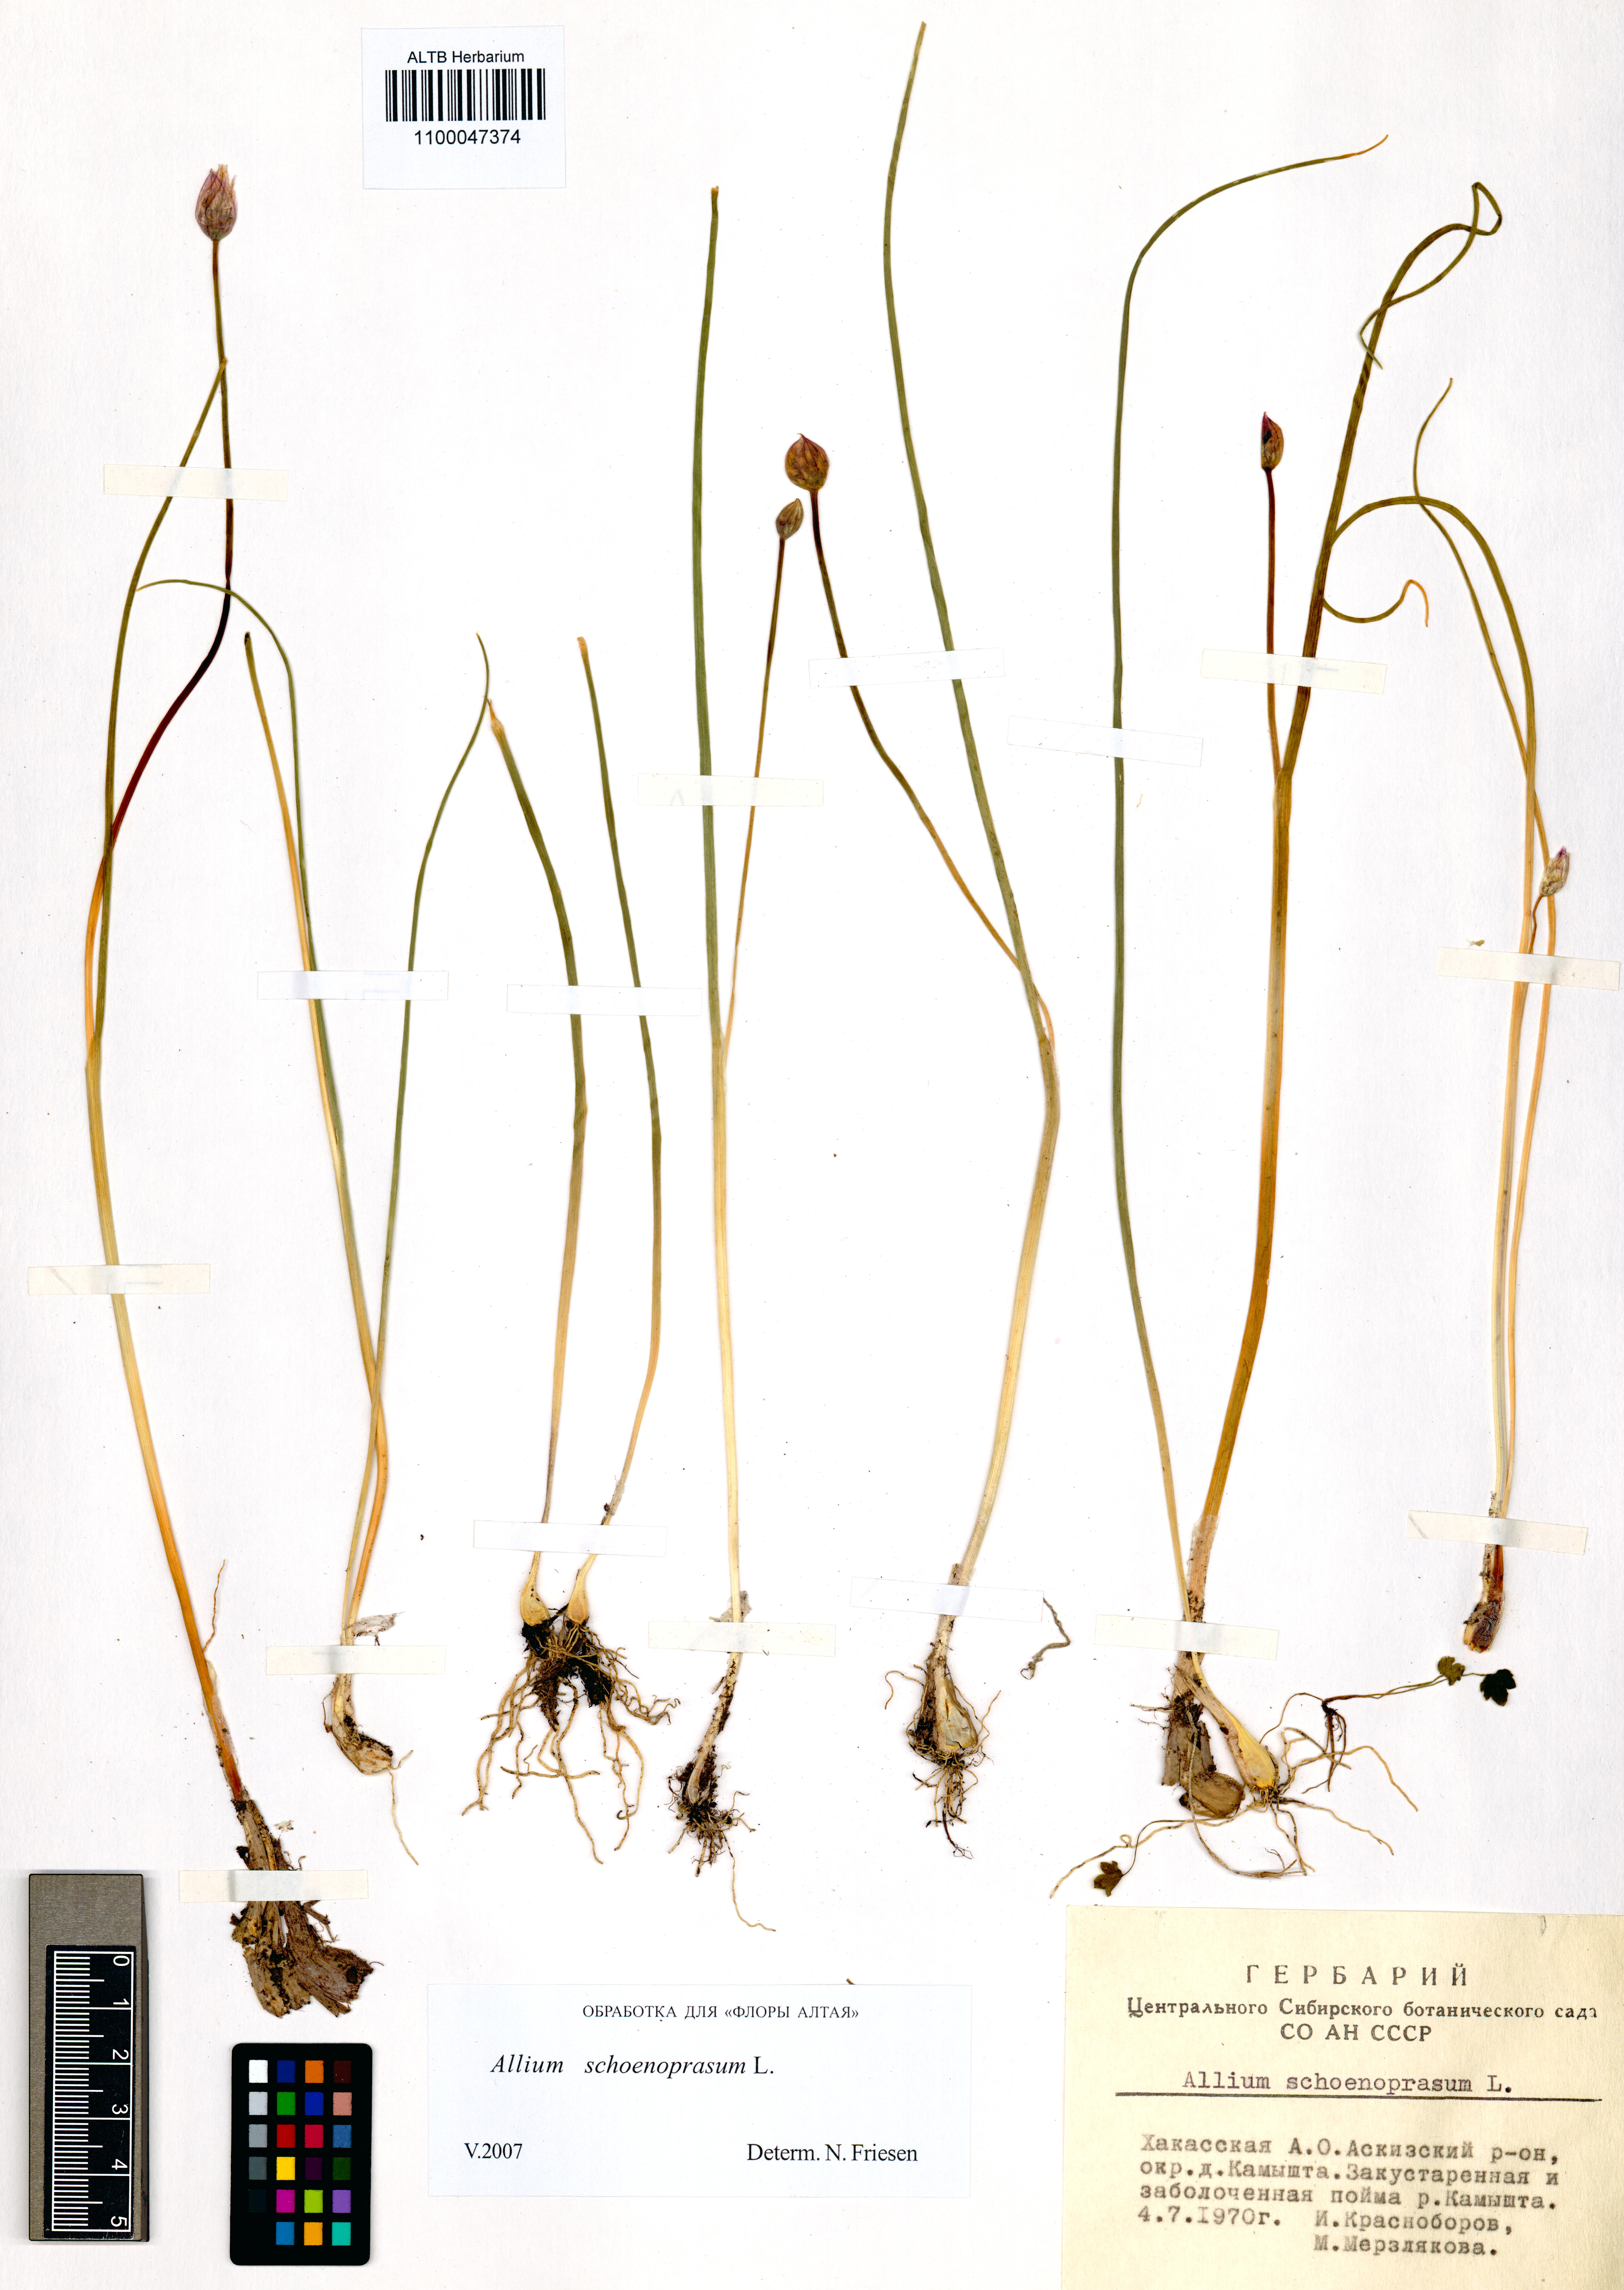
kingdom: Plantae
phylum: Tracheophyta
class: Liliopsida
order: Asparagales
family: Amaryllidaceae
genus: Allium
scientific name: Allium schoenoprasum
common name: Chives
